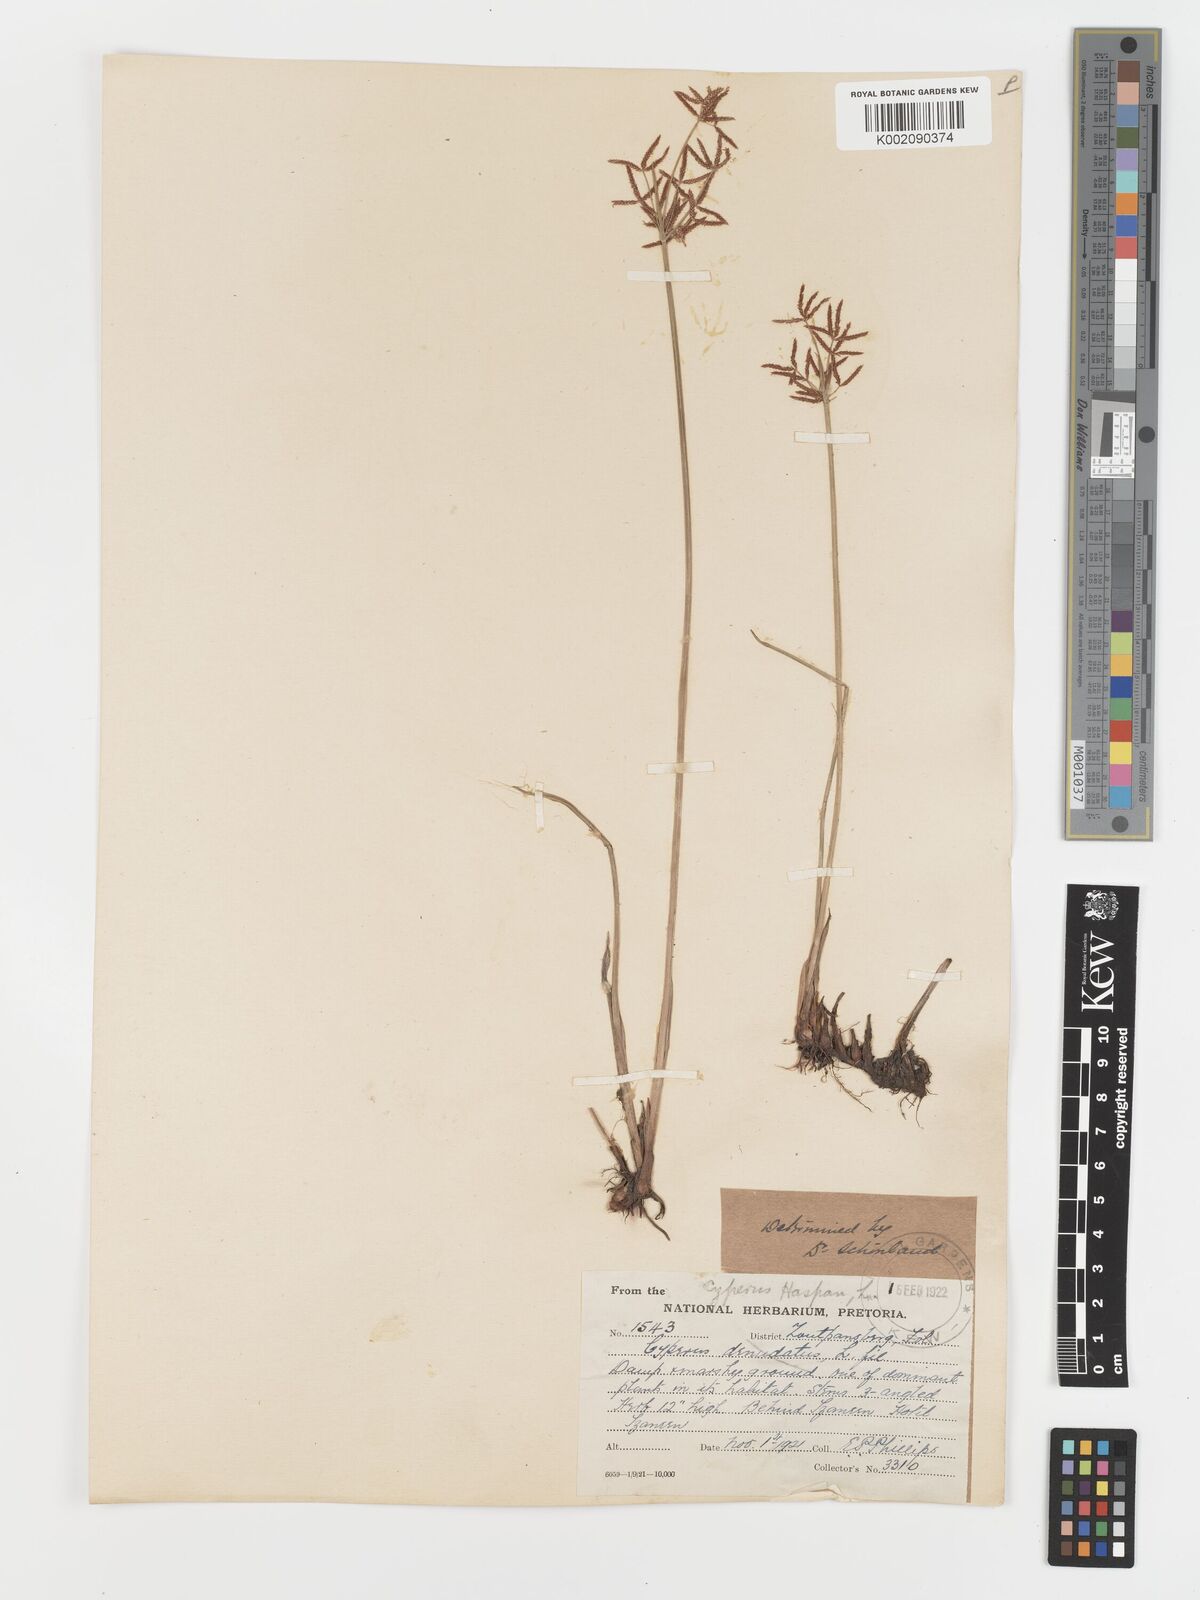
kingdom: Plantae
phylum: Tracheophyta
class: Liliopsida
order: Poales
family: Cyperaceae
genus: Cyperus
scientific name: Cyperus haspan
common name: Haspan flatsedge
